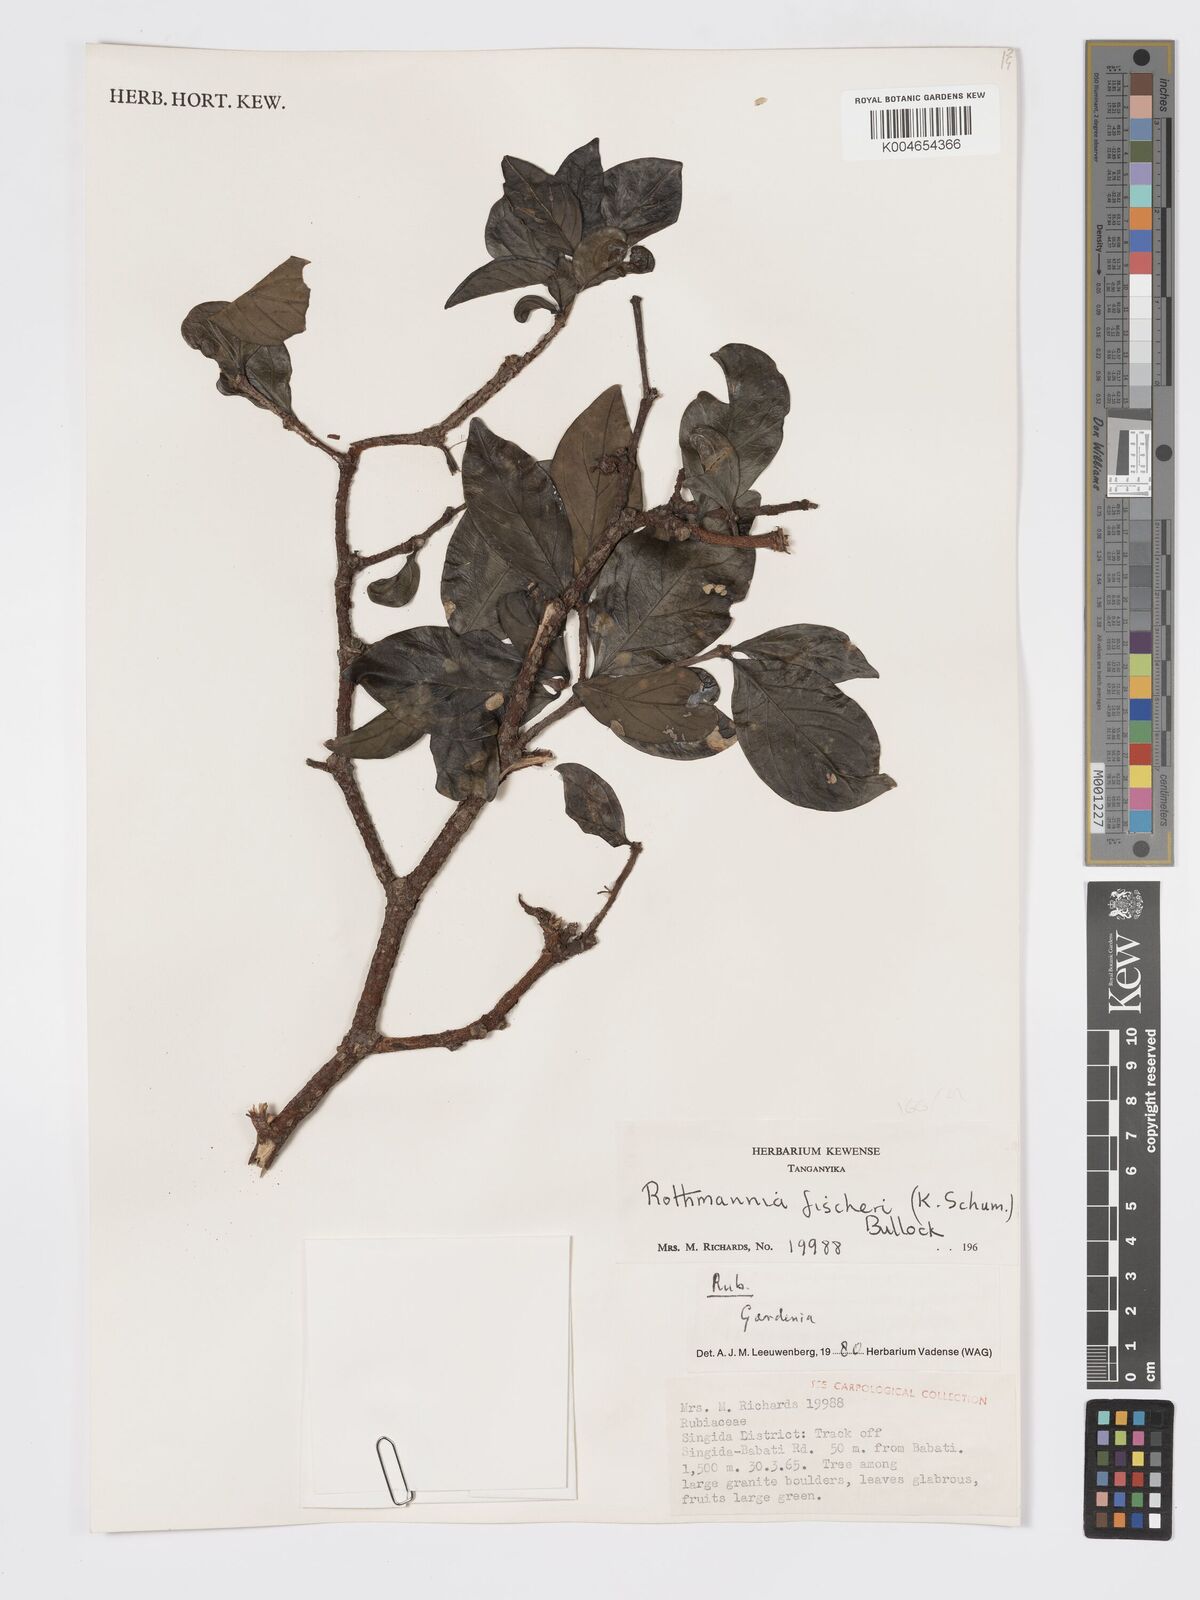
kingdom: Plantae
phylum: Tracheophyta
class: Magnoliopsida
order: Gentianales
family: Rubiaceae
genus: Rothmannia
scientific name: Rothmannia fischeri
